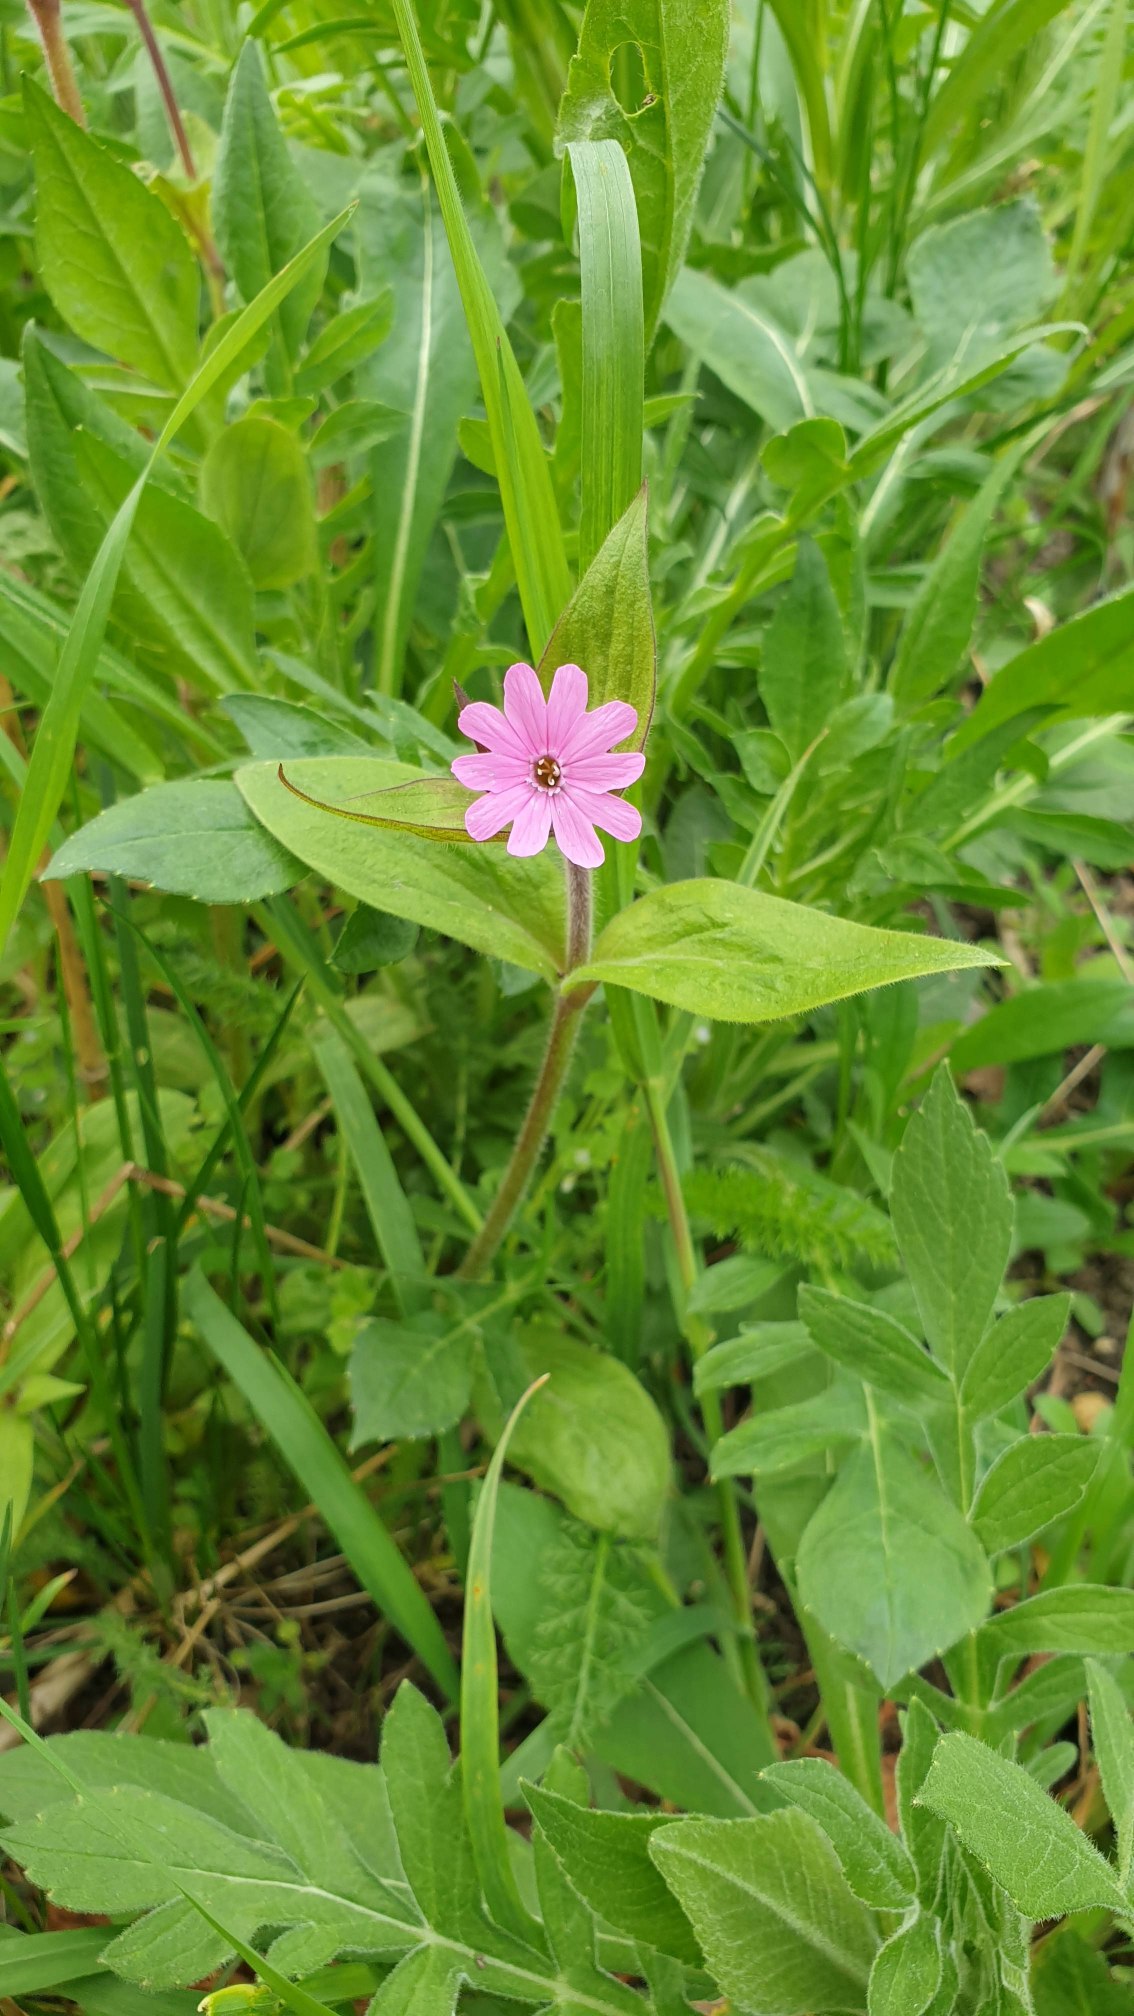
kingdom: Plantae
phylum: Tracheophyta
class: Magnoliopsida
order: Caryophyllales
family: Caryophyllaceae
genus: Silene
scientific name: Silene dioica
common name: Dagpragtstjerne
